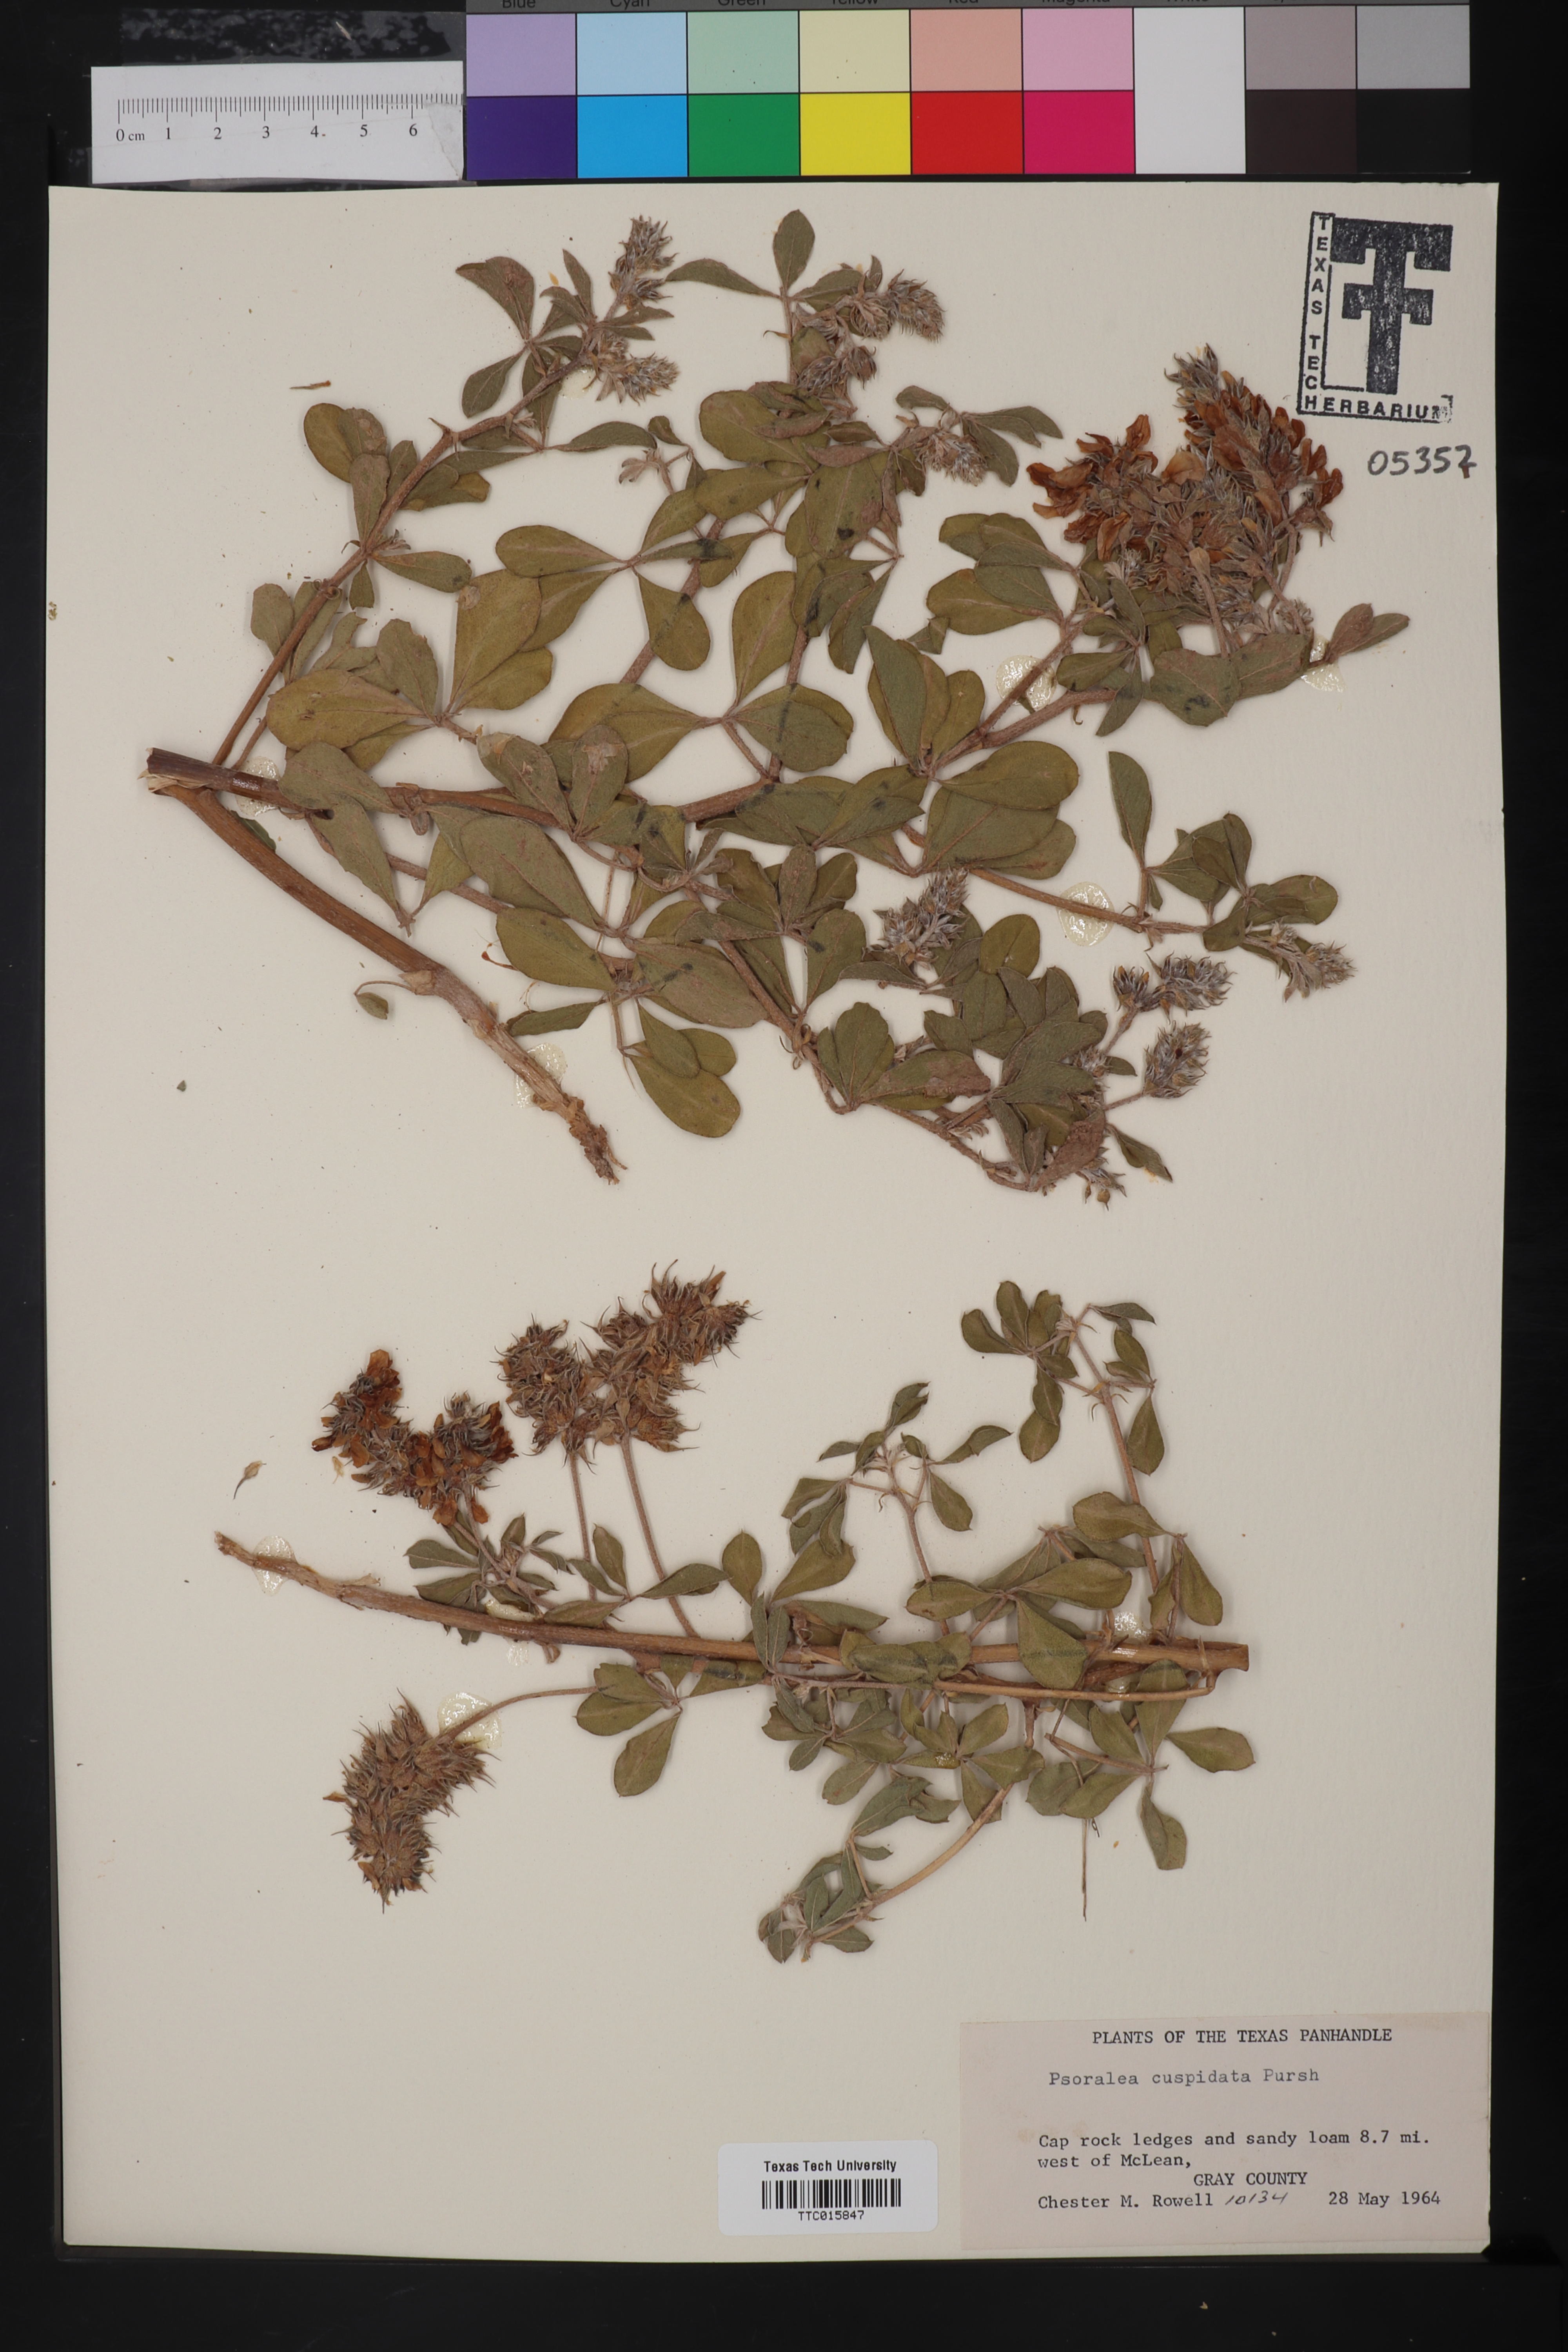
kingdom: Plantae
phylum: Tracheophyta
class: Magnoliopsida
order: Fabales
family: Fabaceae
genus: Pediomelum
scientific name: Pediomelum cuspidatum
